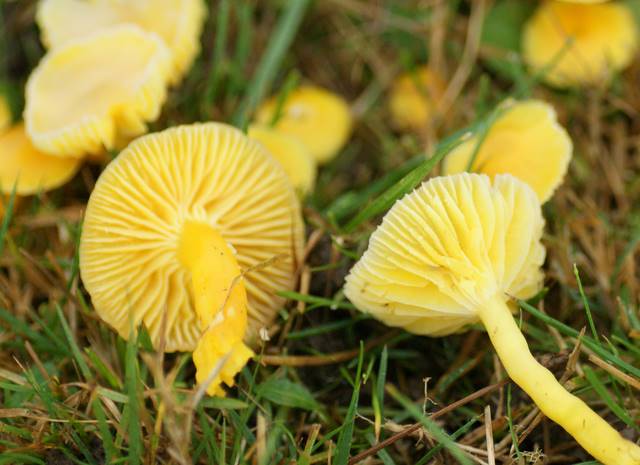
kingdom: Fungi
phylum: Basidiomycota
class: Agaricomycetes
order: Agaricales
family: Hygrophoraceae
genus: Hygrocybe
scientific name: Hygrocybe ceracea
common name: voksgul vokshat
